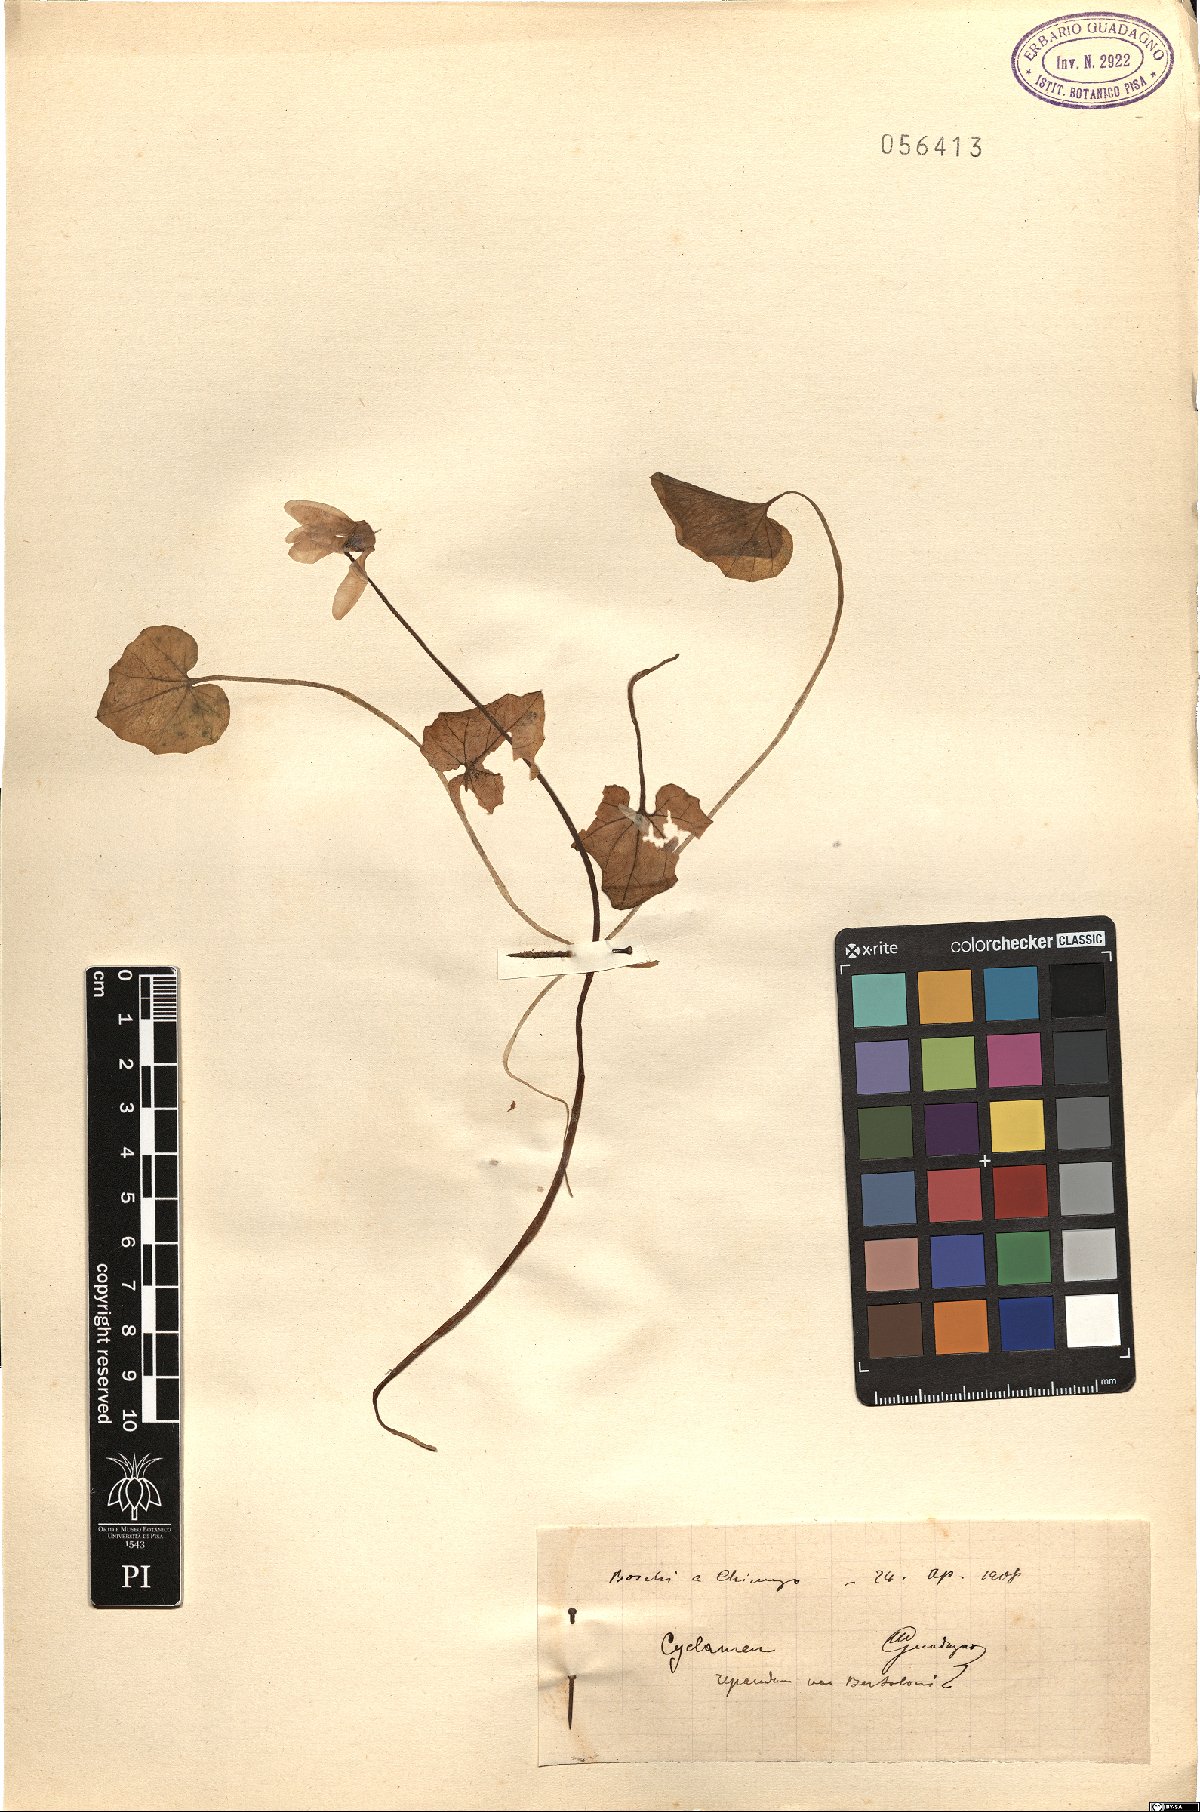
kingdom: Plantae
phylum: Tracheophyta
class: Magnoliopsida
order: Ericales
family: Primulaceae
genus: Cyclamen
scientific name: Cyclamen repandum
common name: Spring sowbread
